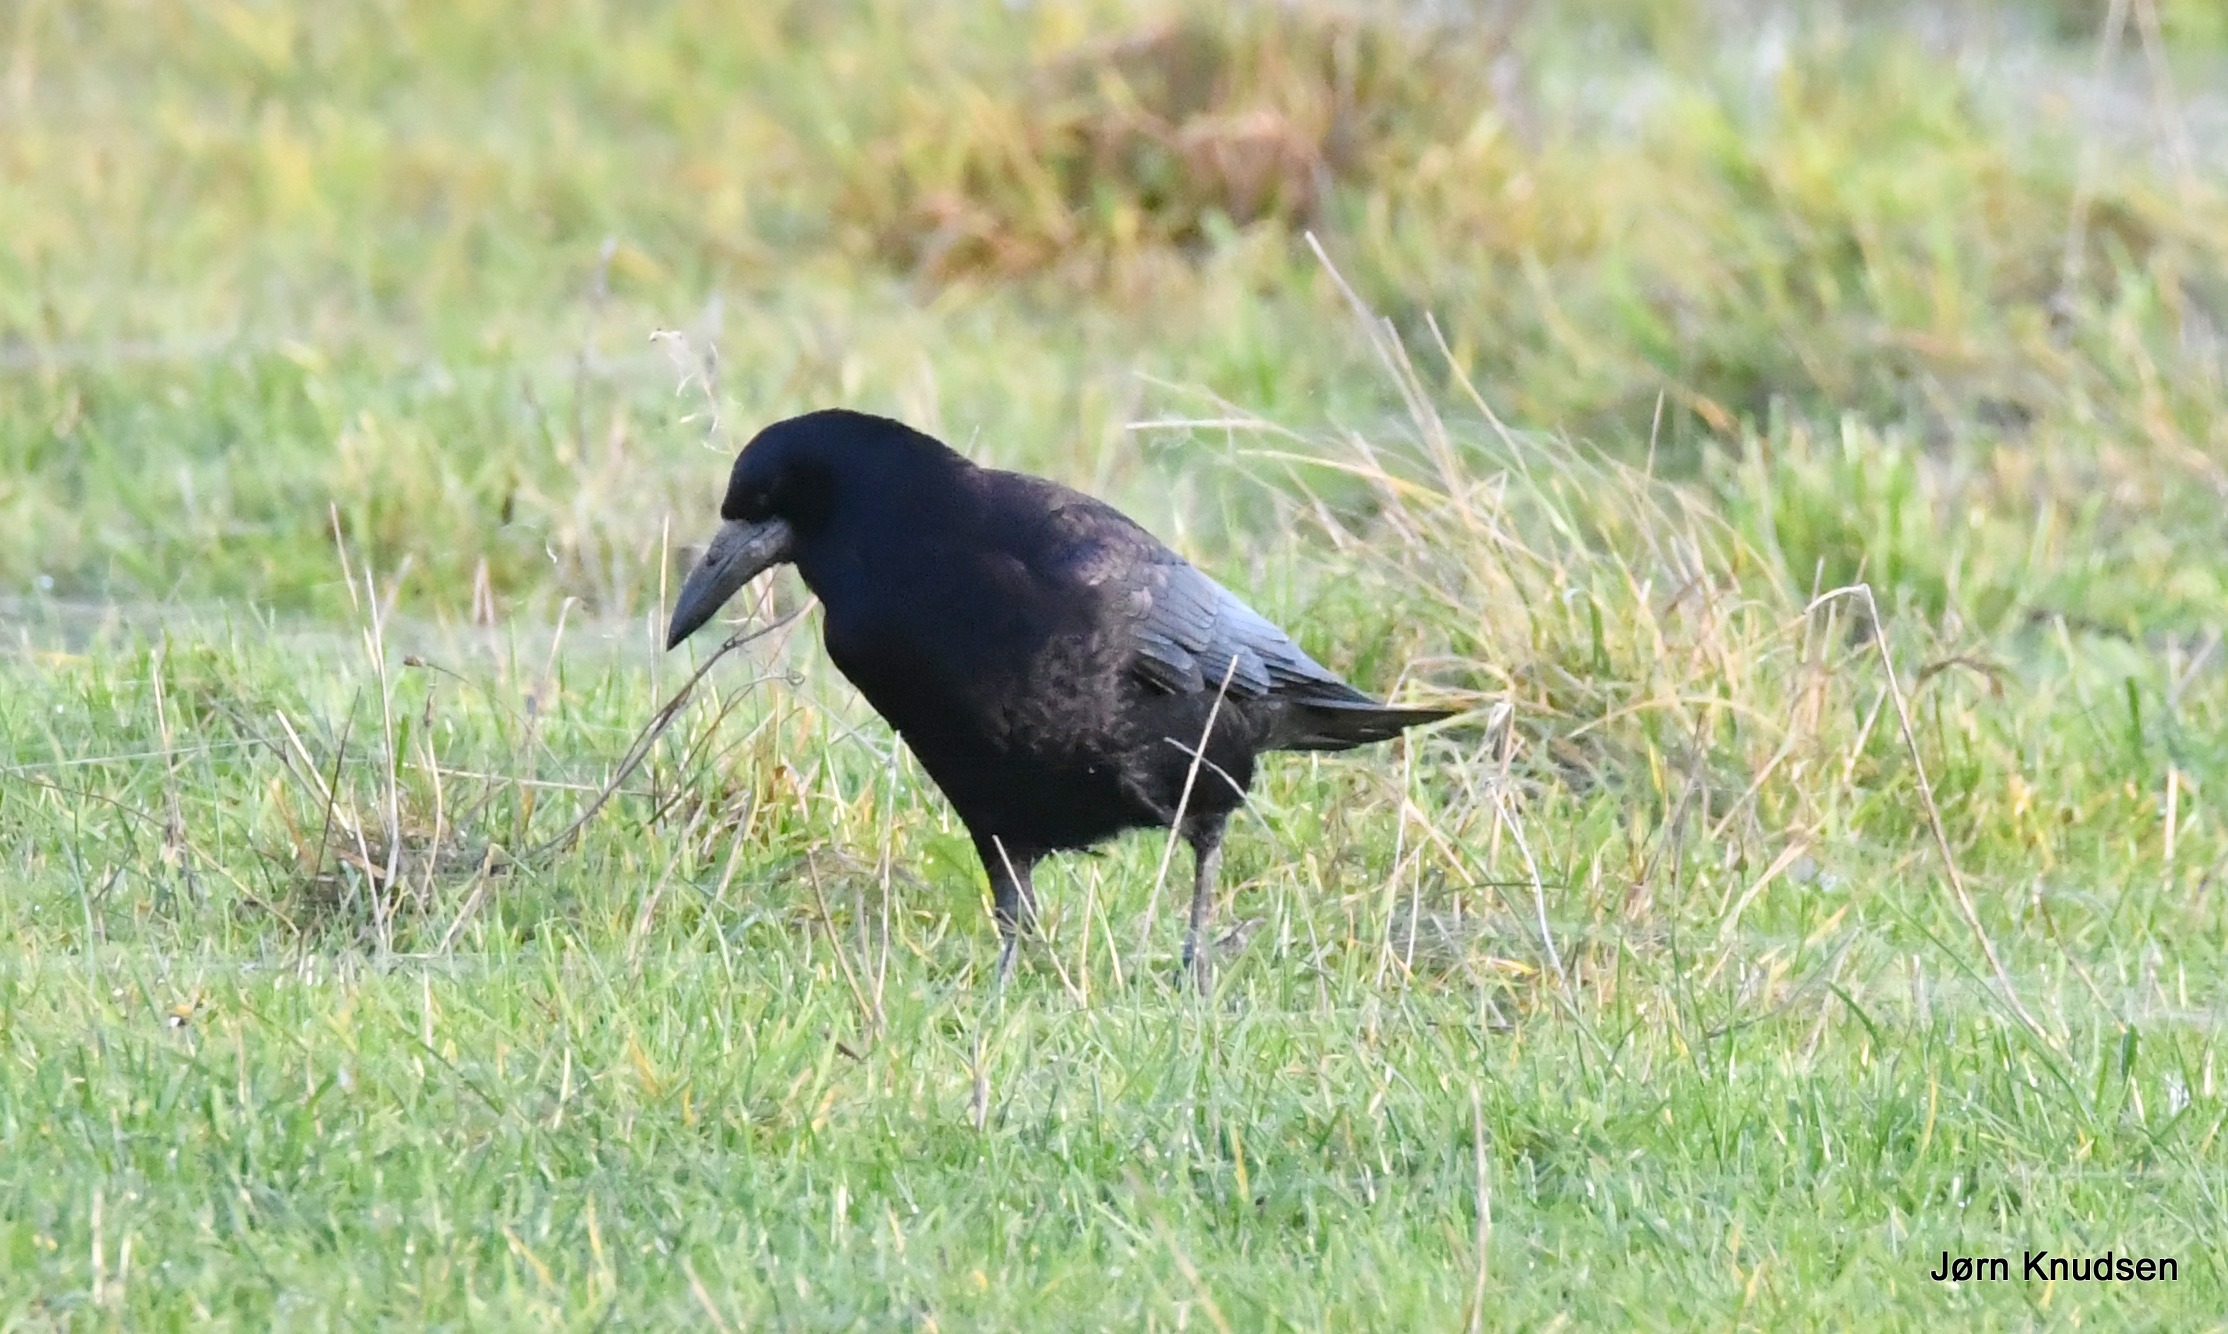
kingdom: Animalia
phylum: Chordata
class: Aves
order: Passeriformes
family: Corvidae
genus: Corvus
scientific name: Corvus frugilegus
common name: Råge
